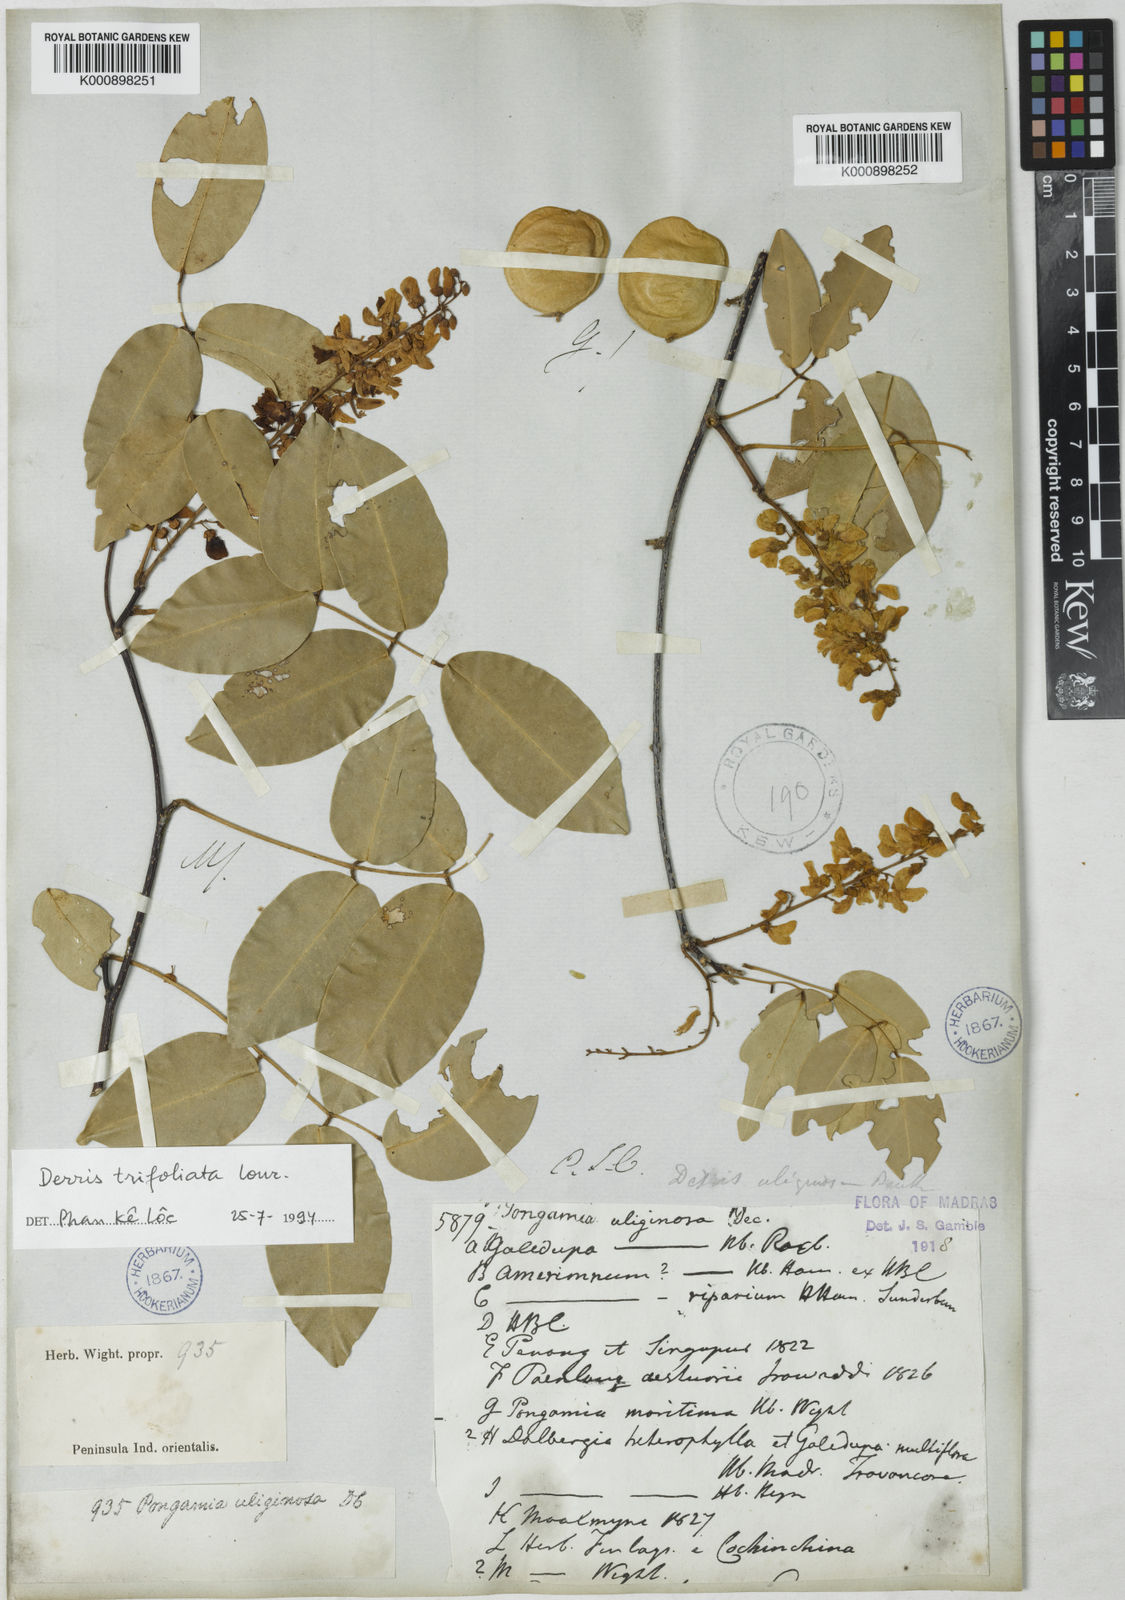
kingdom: Plantae
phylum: Tracheophyta
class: Magnoliopsida
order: Fabales
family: Fabaceae
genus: Derris
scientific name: Derris trifoliata
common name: Three-leaf derris
